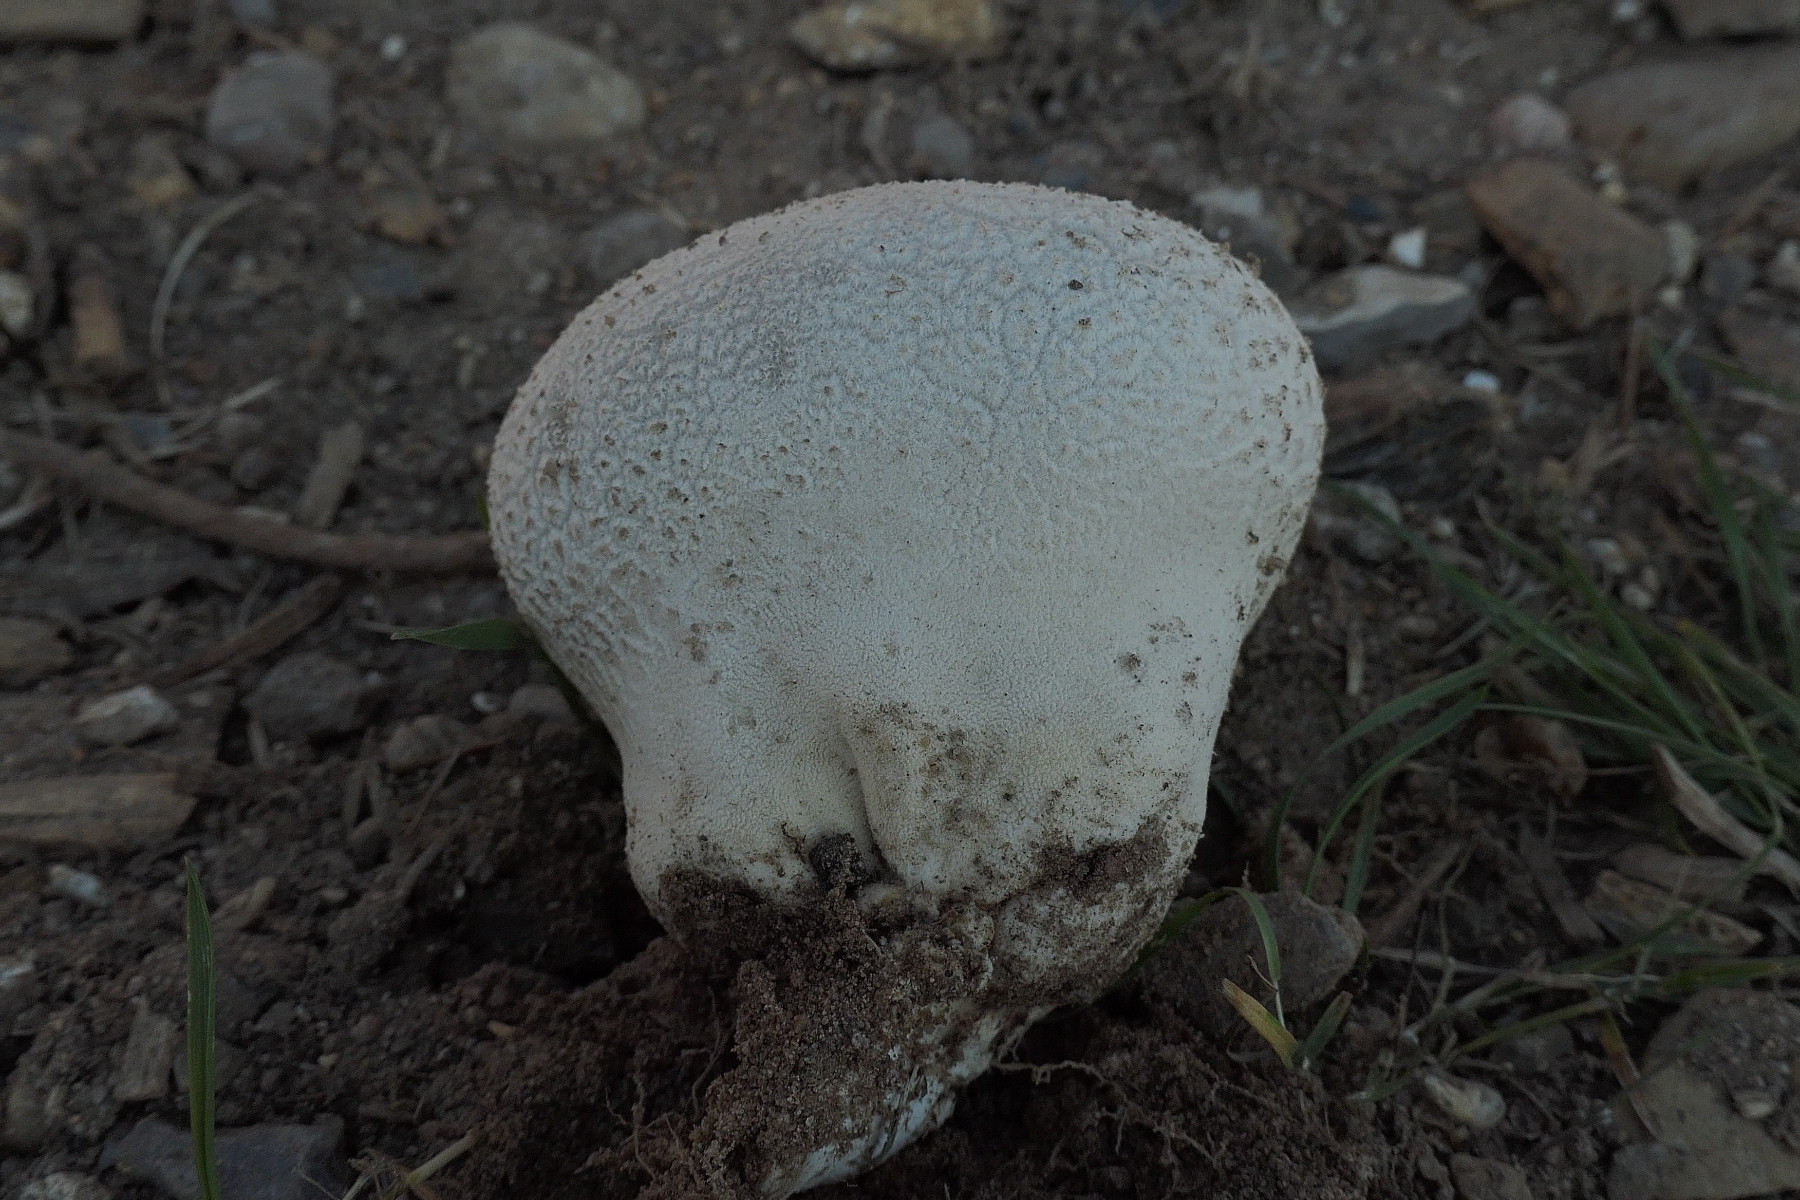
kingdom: Fungi
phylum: Basidiomycota
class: Agaricomycetes
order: Agaricales
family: Lycoperdaceae
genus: Bovistella
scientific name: Bovistella utriformis
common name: skællet støvbold
